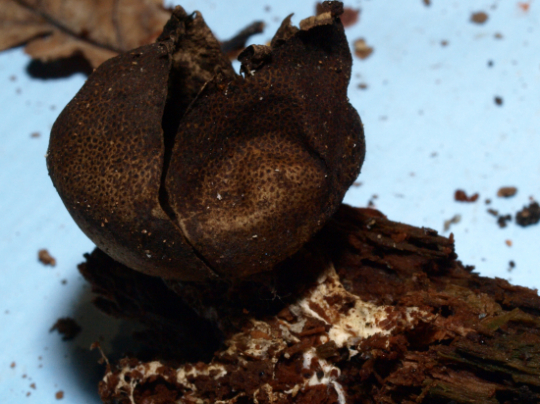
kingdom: Fungi
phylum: Basidiomycota
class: Agaricomycetes
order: Boletales
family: Sclerodermataceae
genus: Scleroderma
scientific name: Scleroderma areolatum
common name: plettet bruskbold
